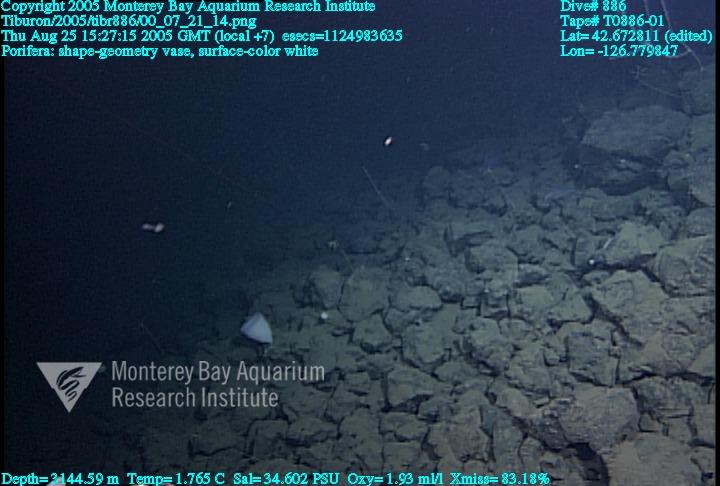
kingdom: Animalia
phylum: Porifera
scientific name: Porifera
